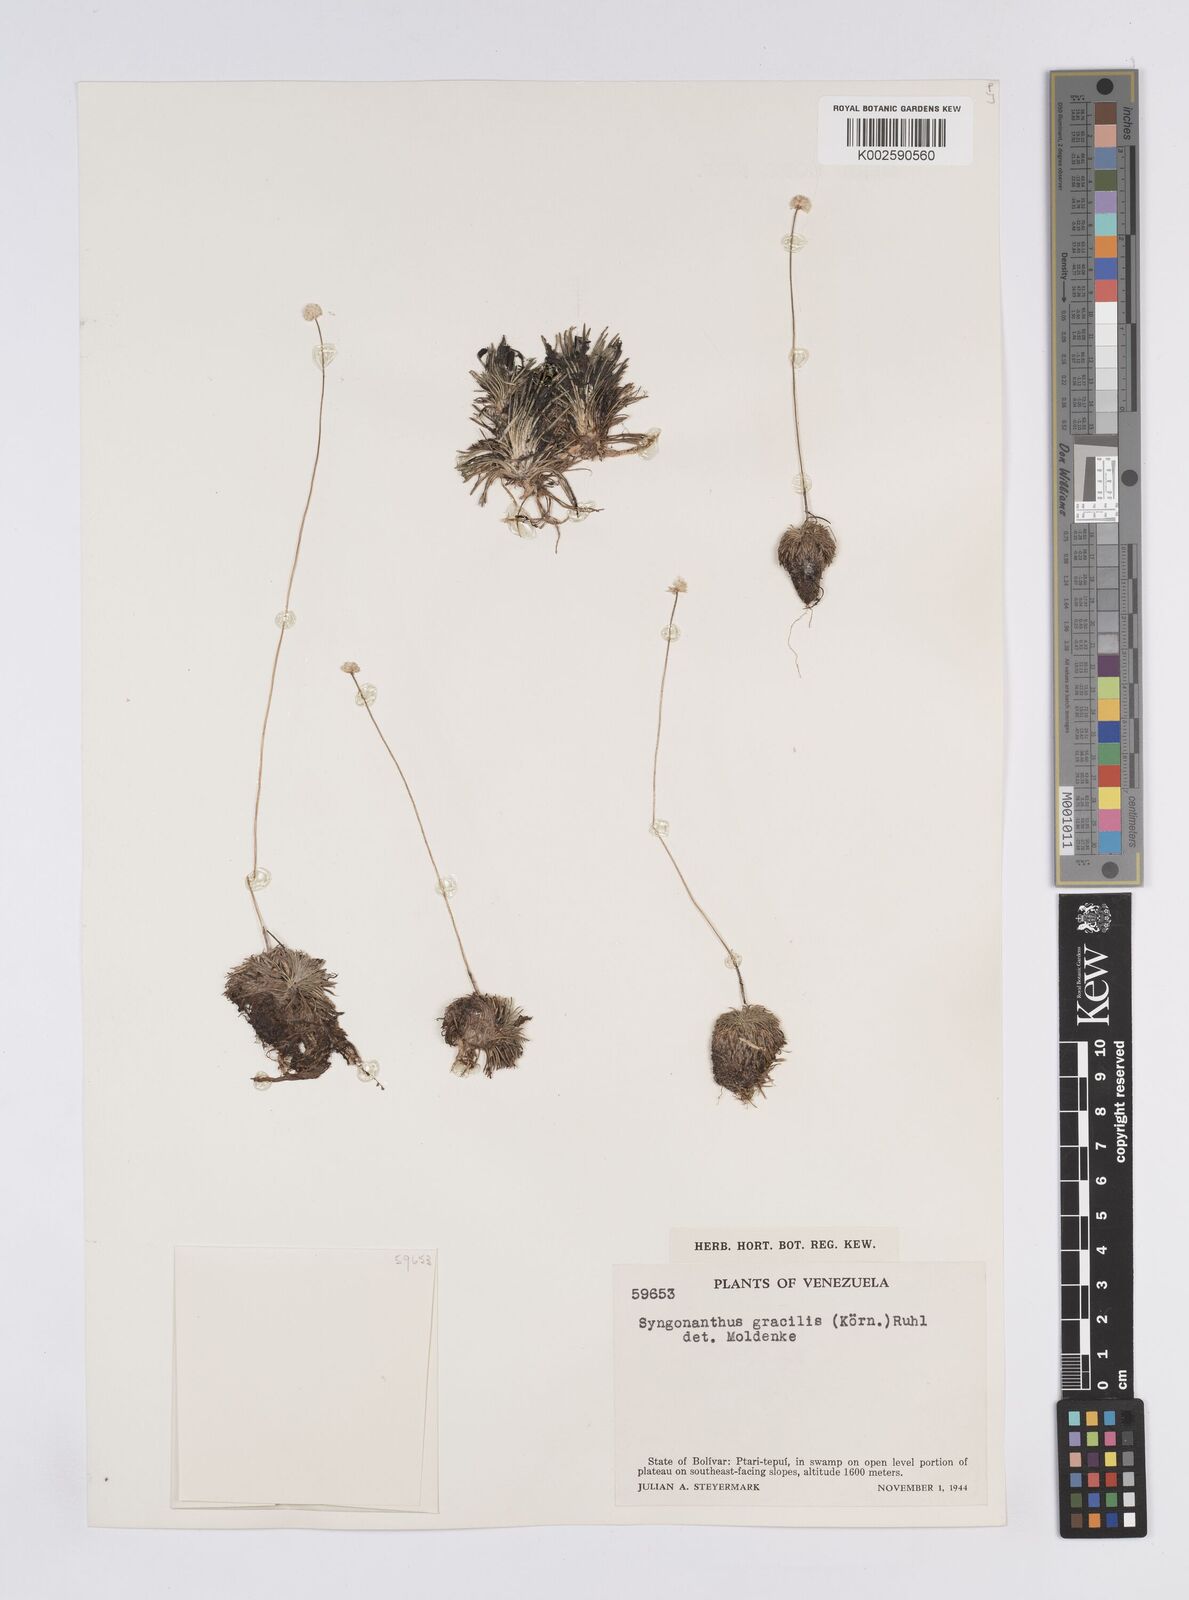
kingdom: Plantae
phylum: Tracheophyta
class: Liliopsida
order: Poales
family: Eriocaulaceae
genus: Syngonanthus
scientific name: Syngonanthus
